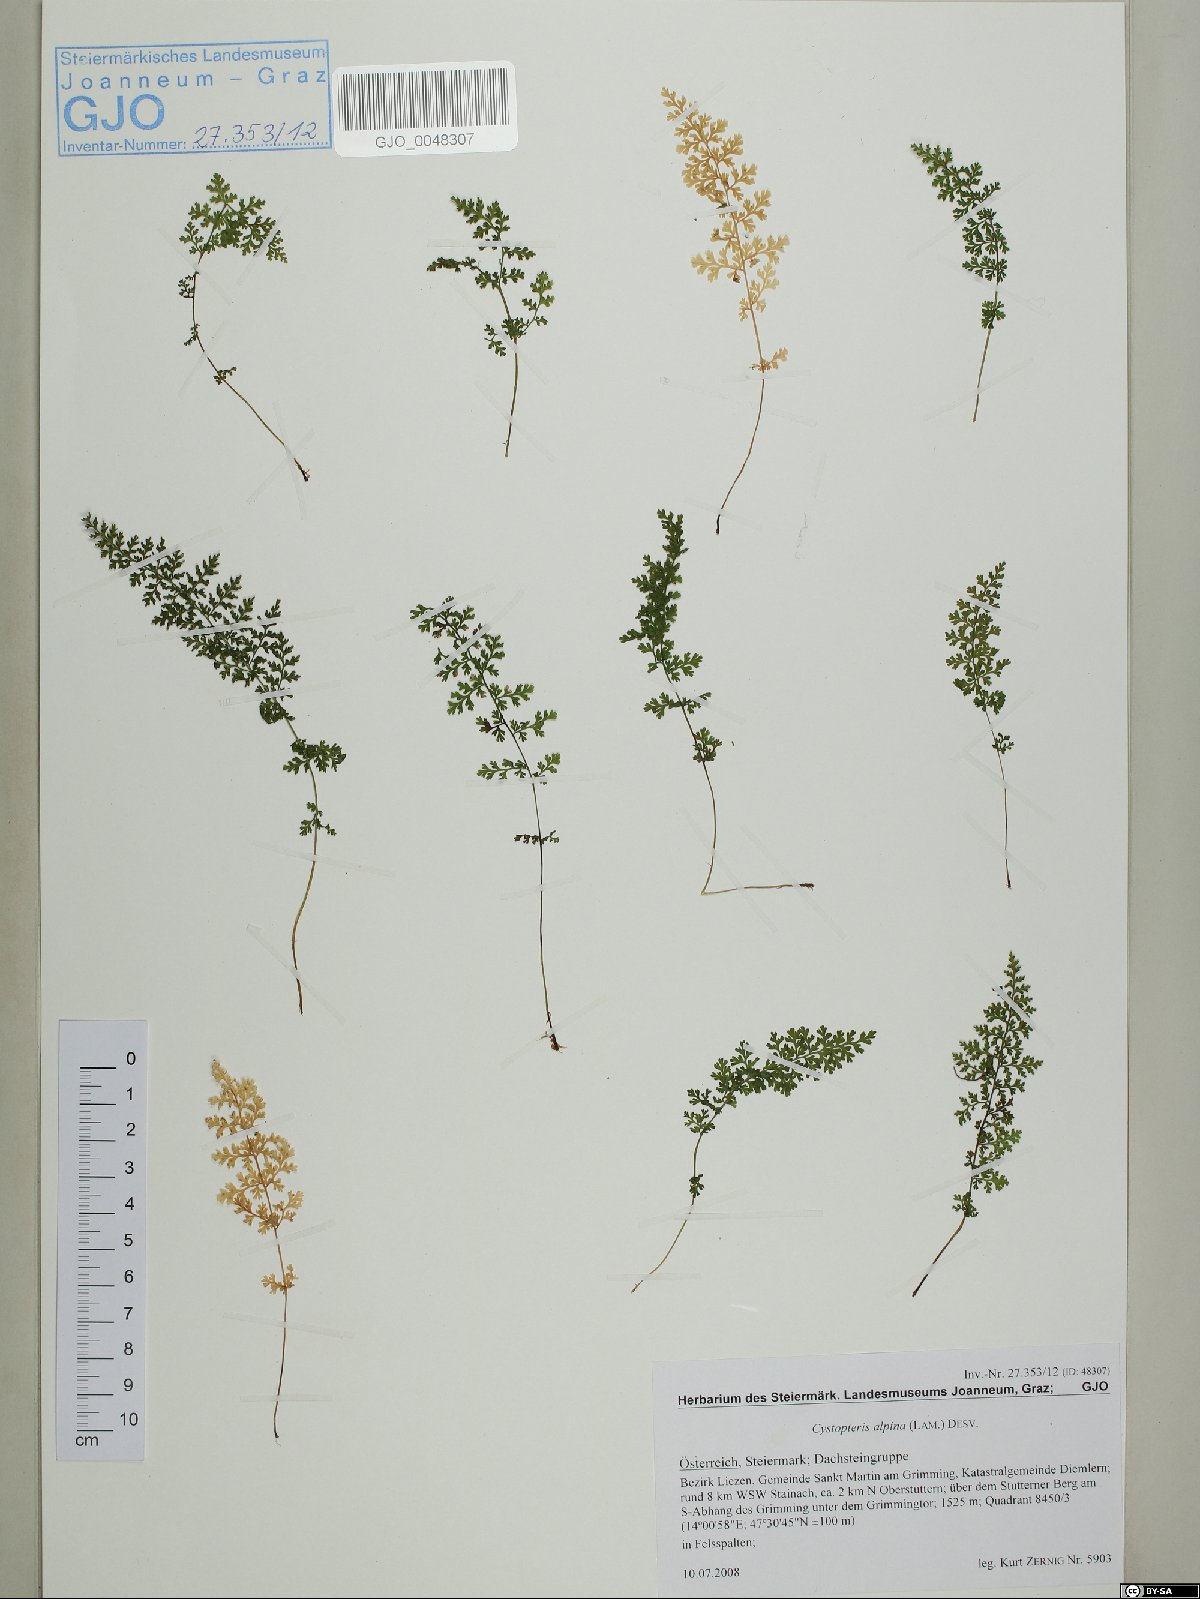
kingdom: Plantae
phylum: Tracheophyta
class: Polypodiopsida
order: Polypodiales
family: Cystopteridaceae
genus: Cystopteris
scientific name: Cystopteris alpina
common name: Alpine bladder-fern
